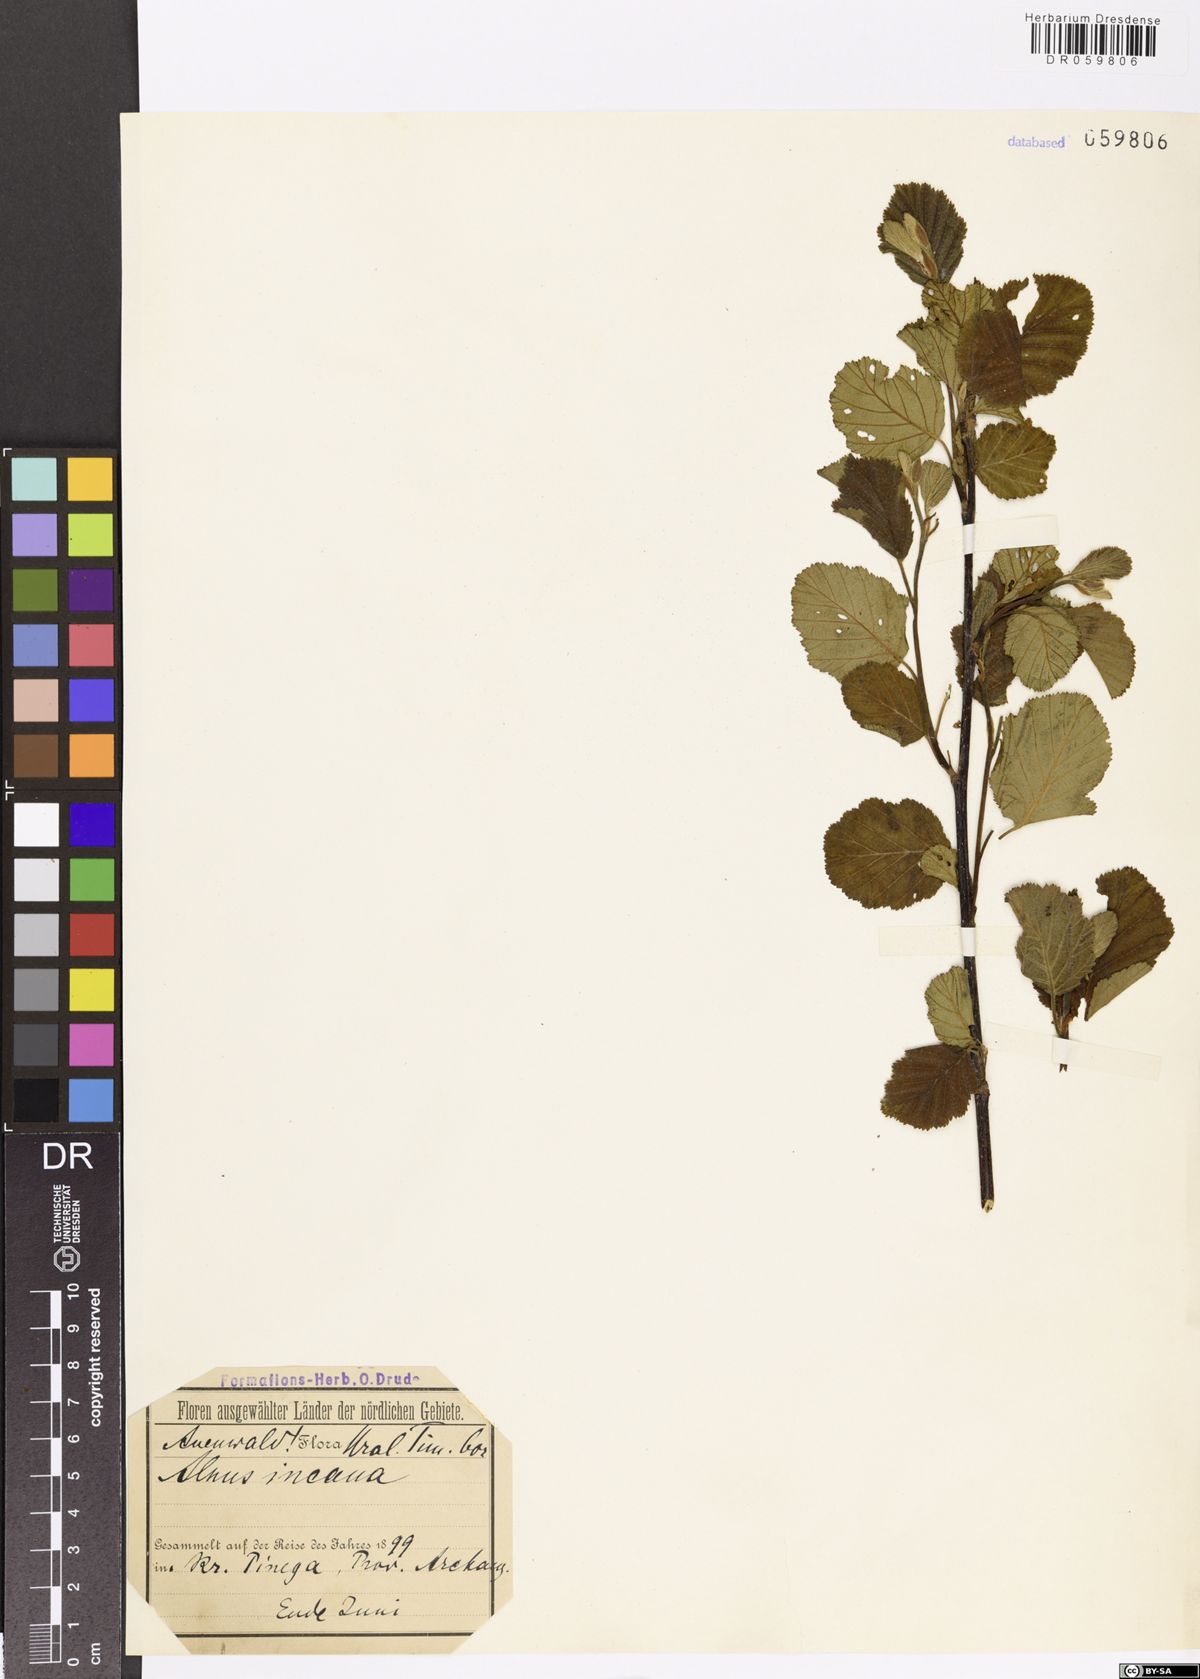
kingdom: Plantae
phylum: Tracheophyta
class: Magnoliopsida
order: Fagales
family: Betulaceae
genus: Alnus
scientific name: Alnus incana
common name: Grey alder
